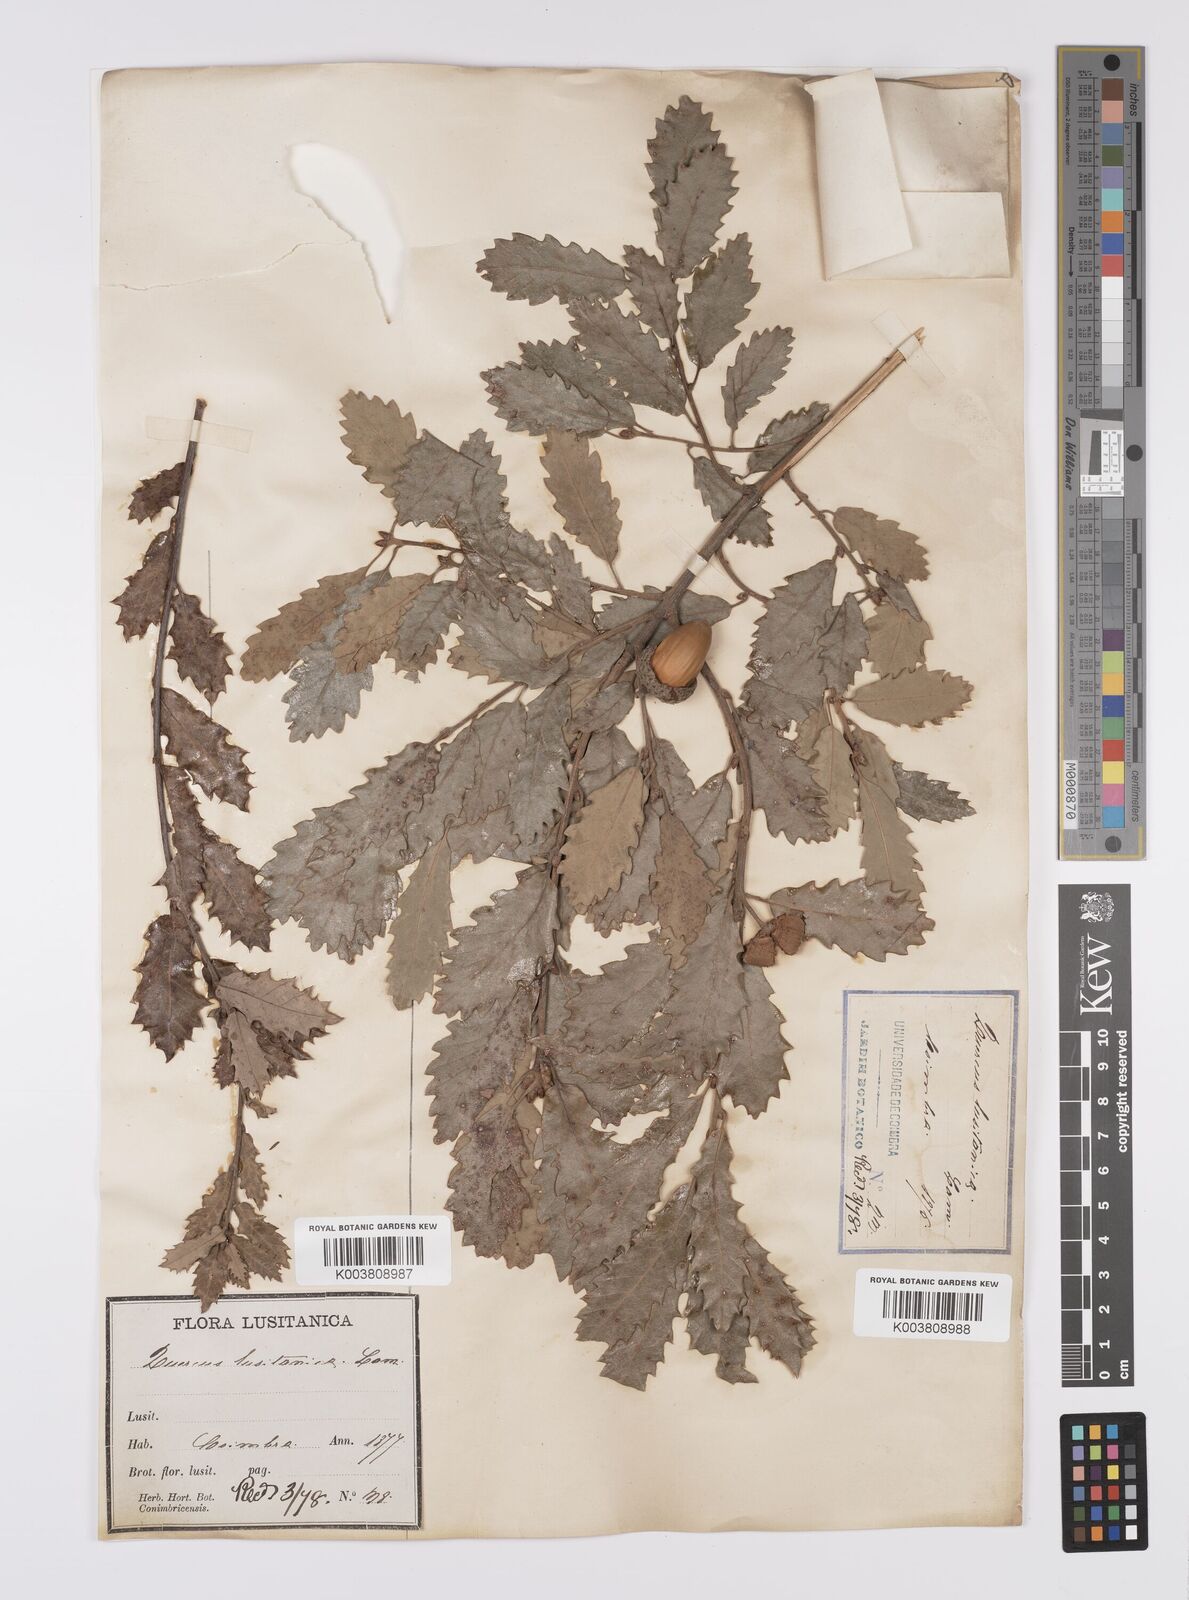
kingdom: Plantae
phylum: Tracheophyta
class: Magnoliopsida
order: Fagales
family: Fagaceae
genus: Quercus
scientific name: Quercus faginea
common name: Gall oak tree
